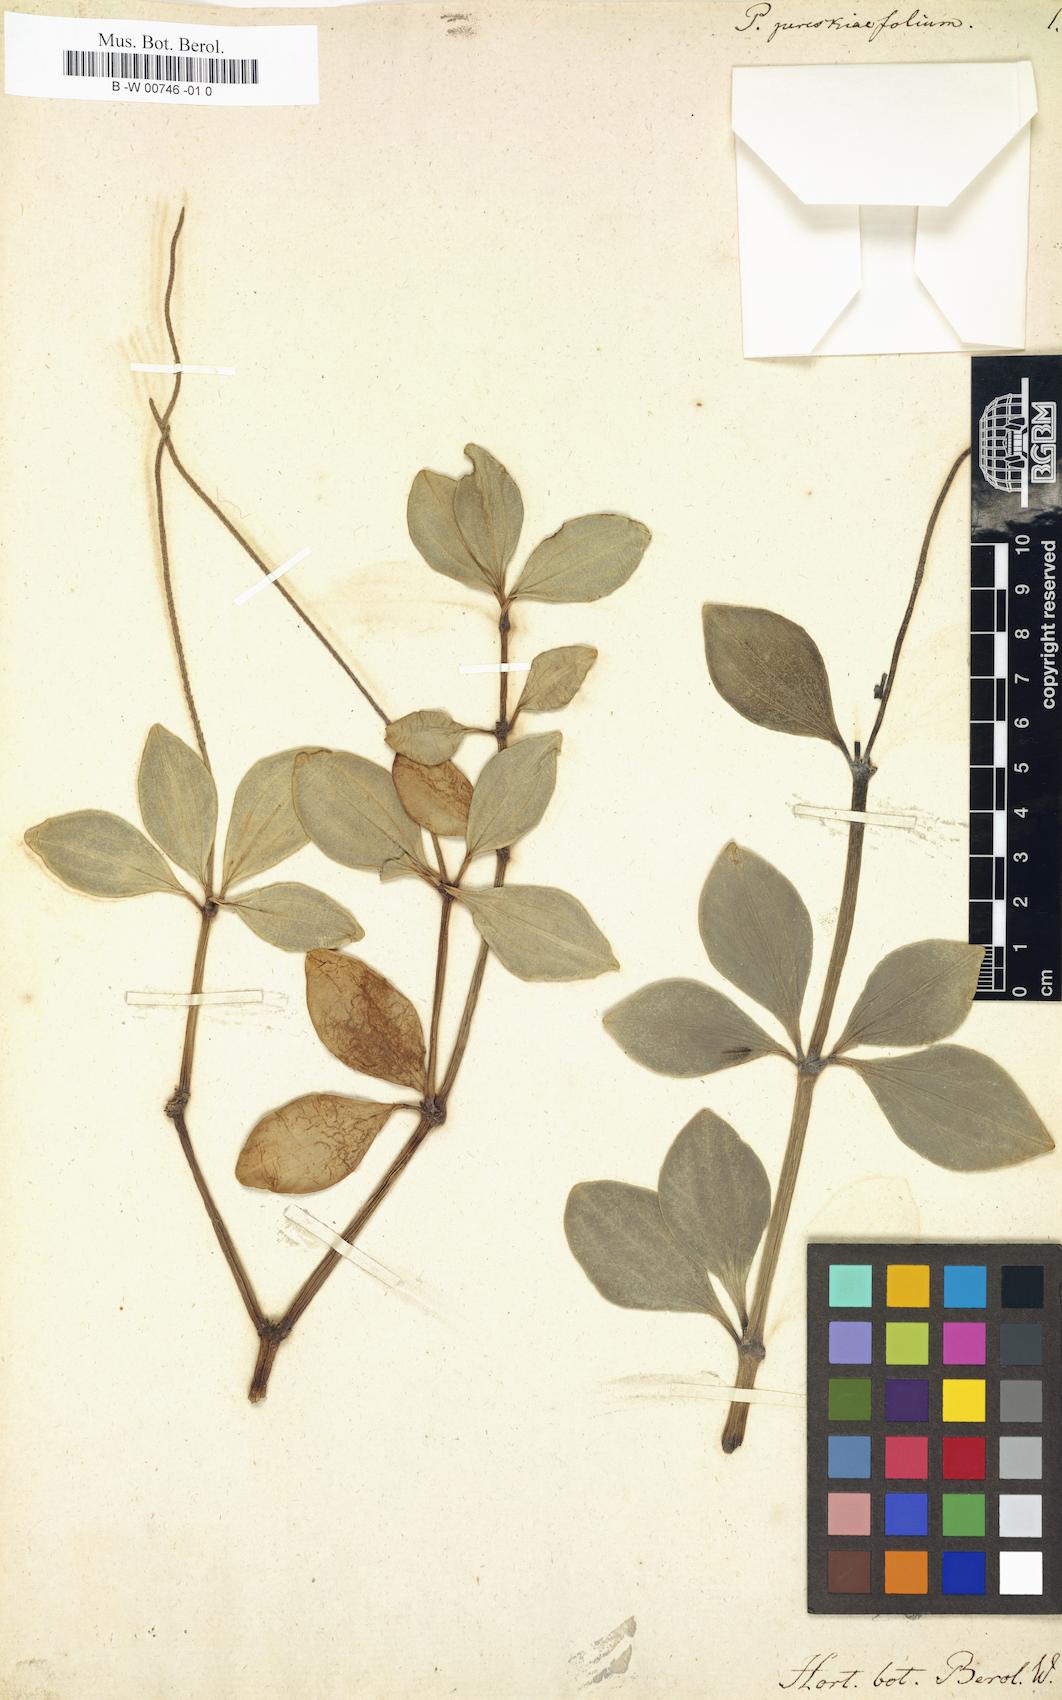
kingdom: Plantae
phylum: Tracheophyta
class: Magnoliopsida
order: Piperales
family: Piperaceae
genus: Peperomia
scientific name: Peperomia pereskiifolia
